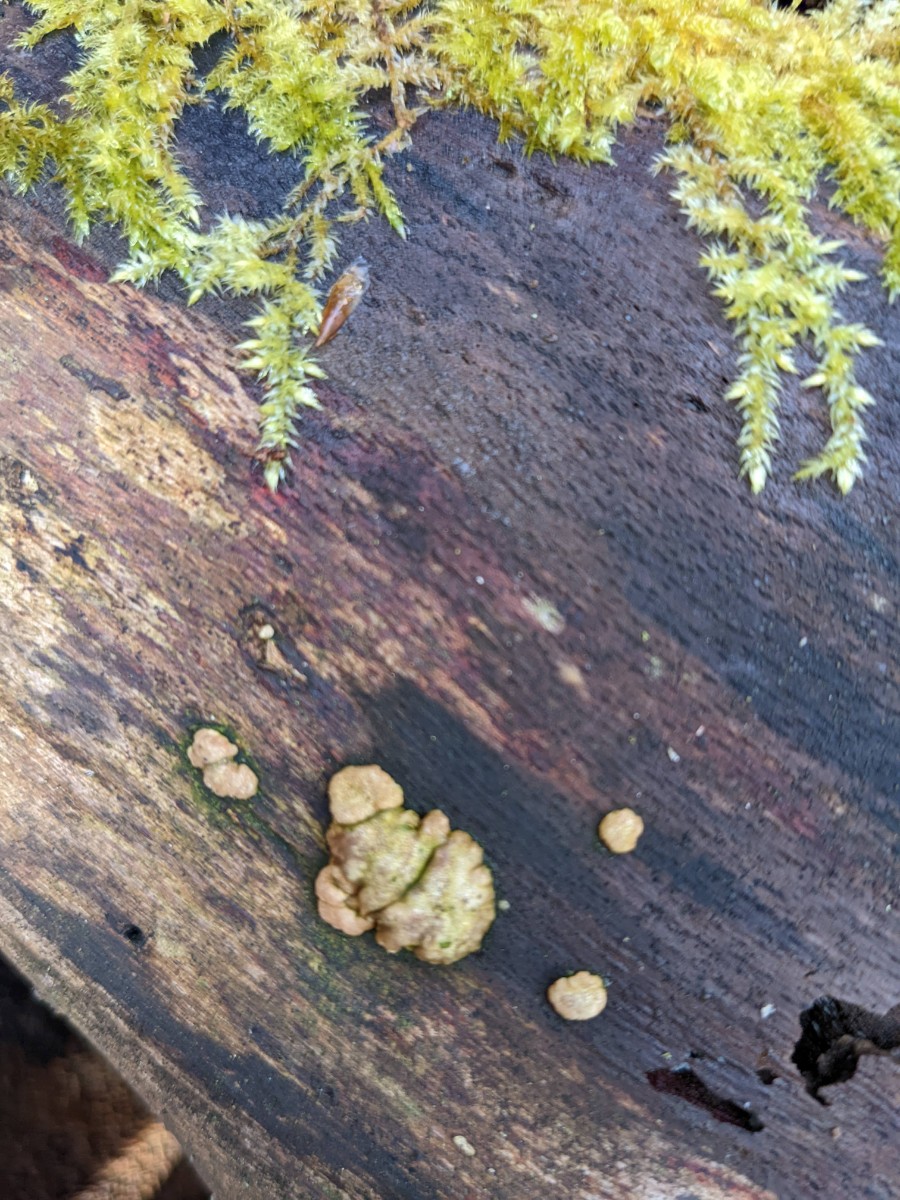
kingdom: Fungi
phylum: Ascomycota
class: Sordariomycetes
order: Hypocreales
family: Hypocreaceae
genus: Trichoderma
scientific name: Trichoderma europaeum
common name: rosabrun kødkerne
